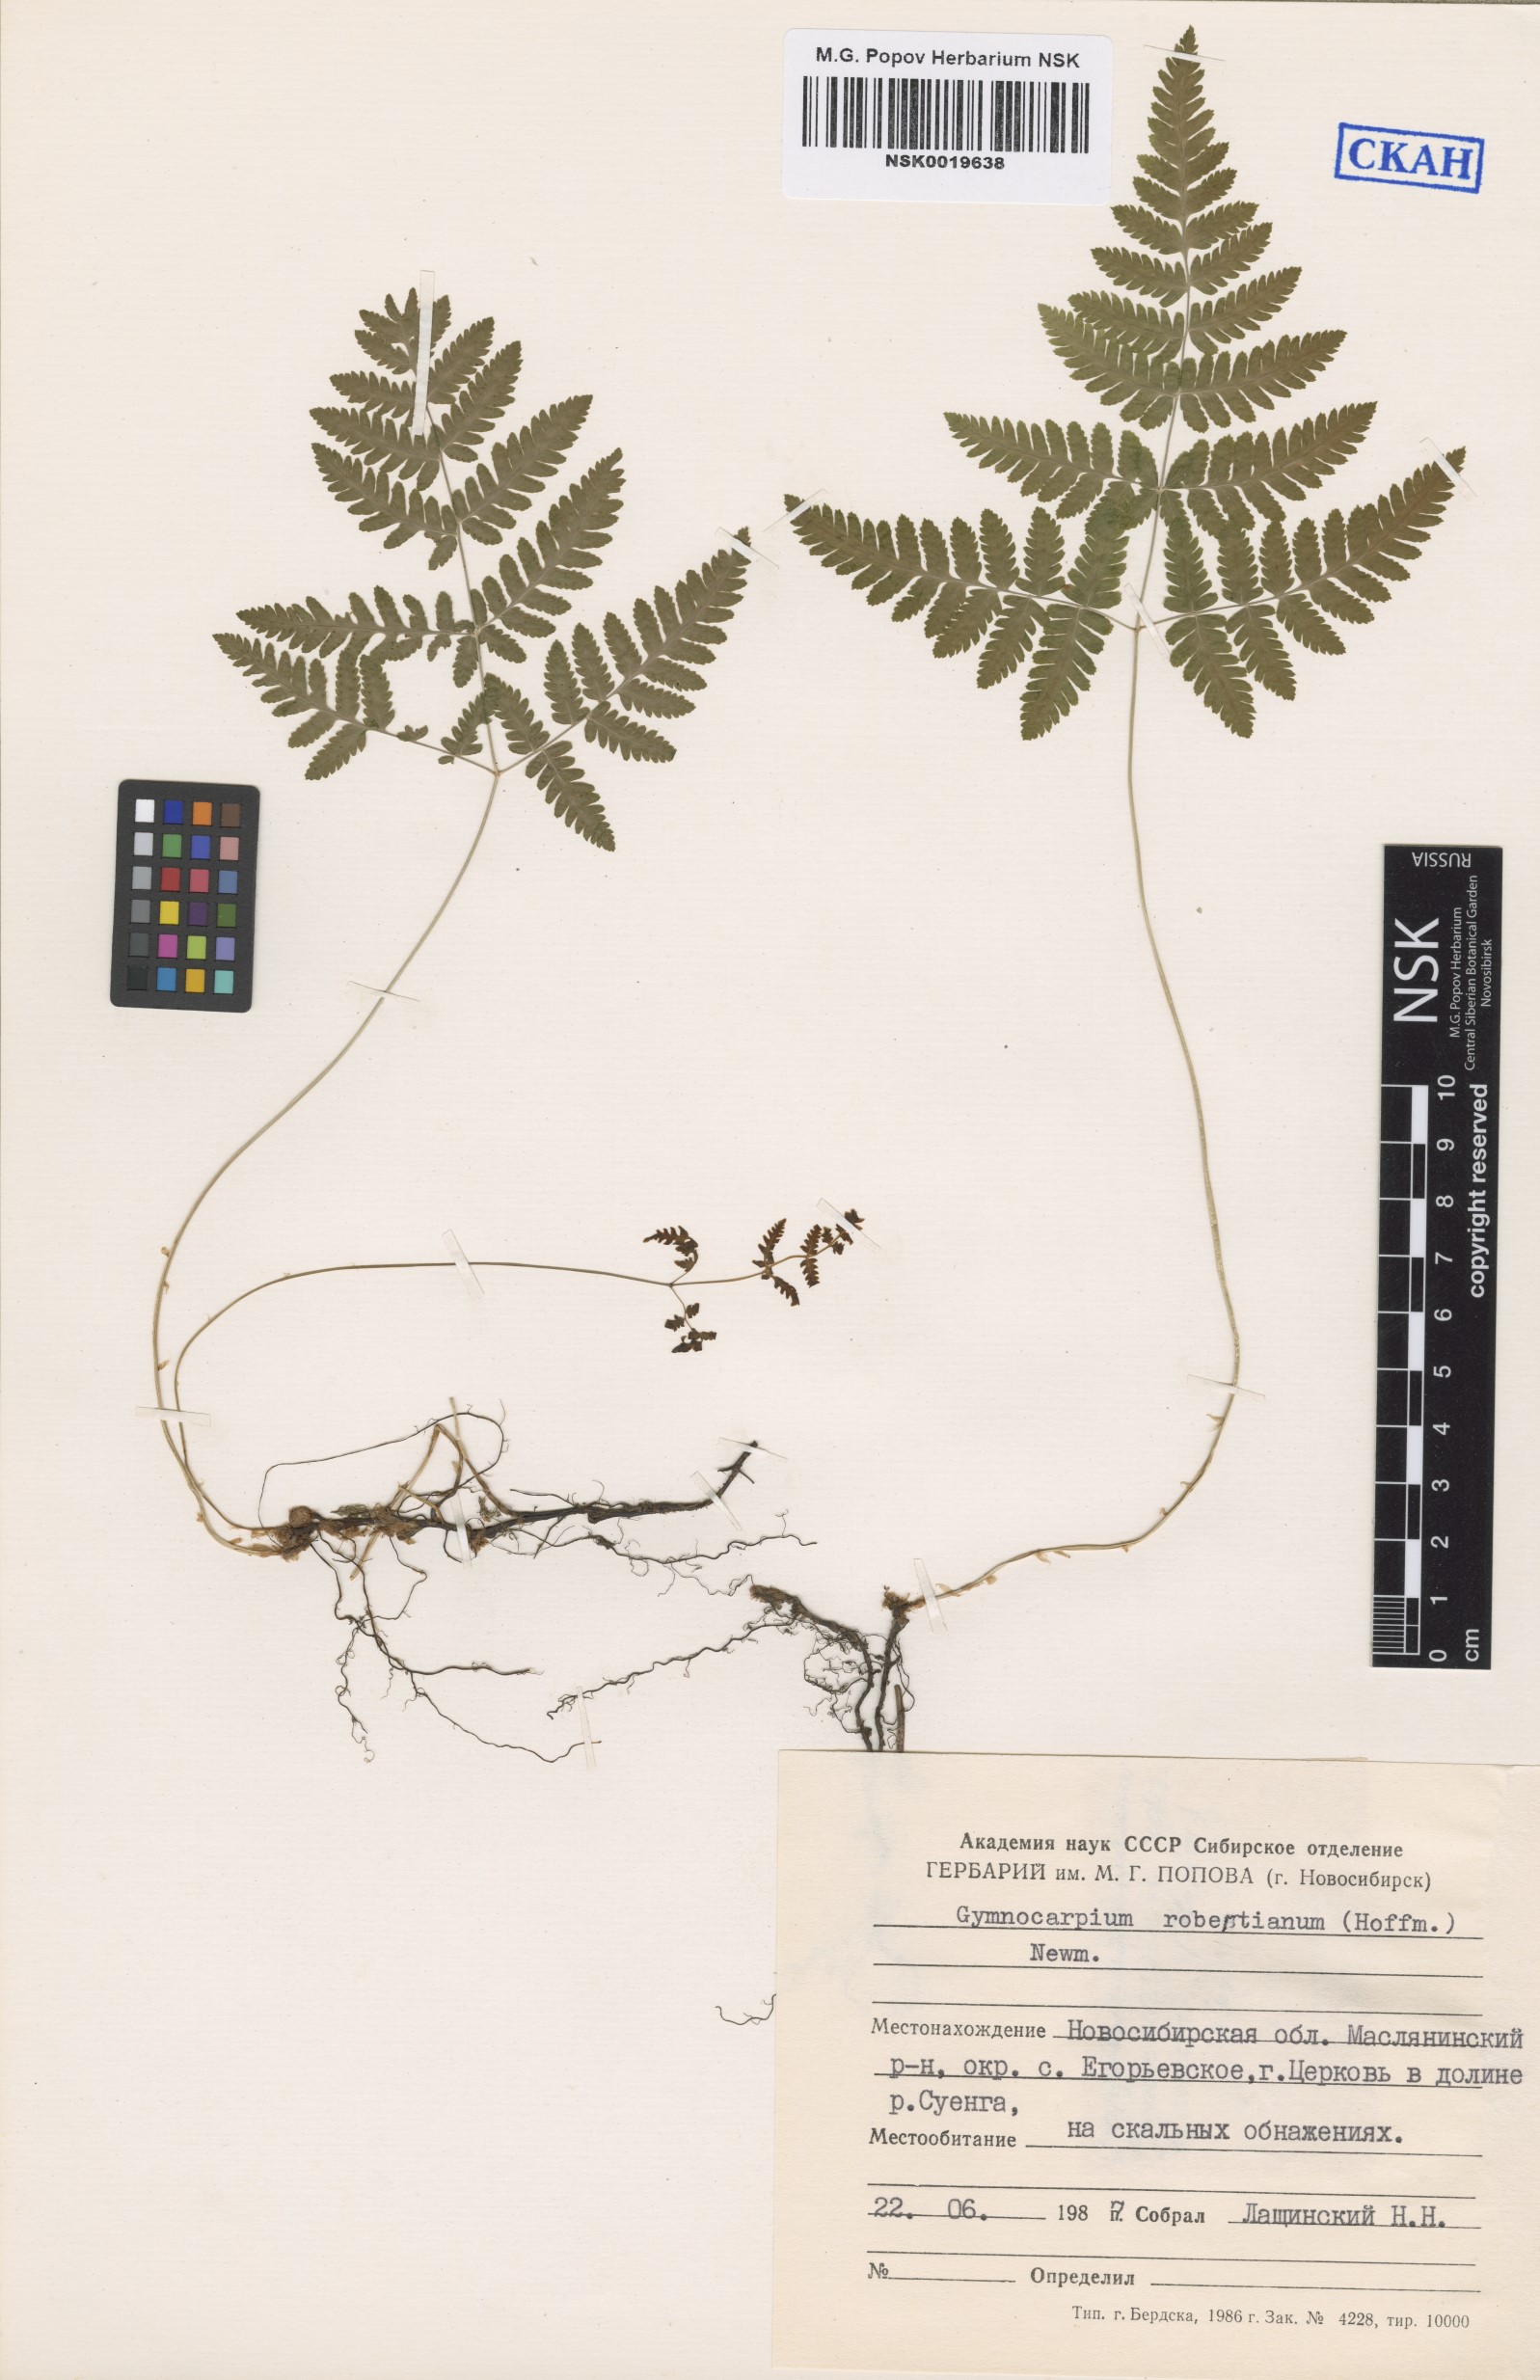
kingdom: Plantae
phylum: Tracheophyta
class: Polypodiopsida
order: Polypodiales
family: Cystopteridaceae
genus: Gymnocarpium
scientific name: Gymnocarpium robertianum
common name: Limestone fern
